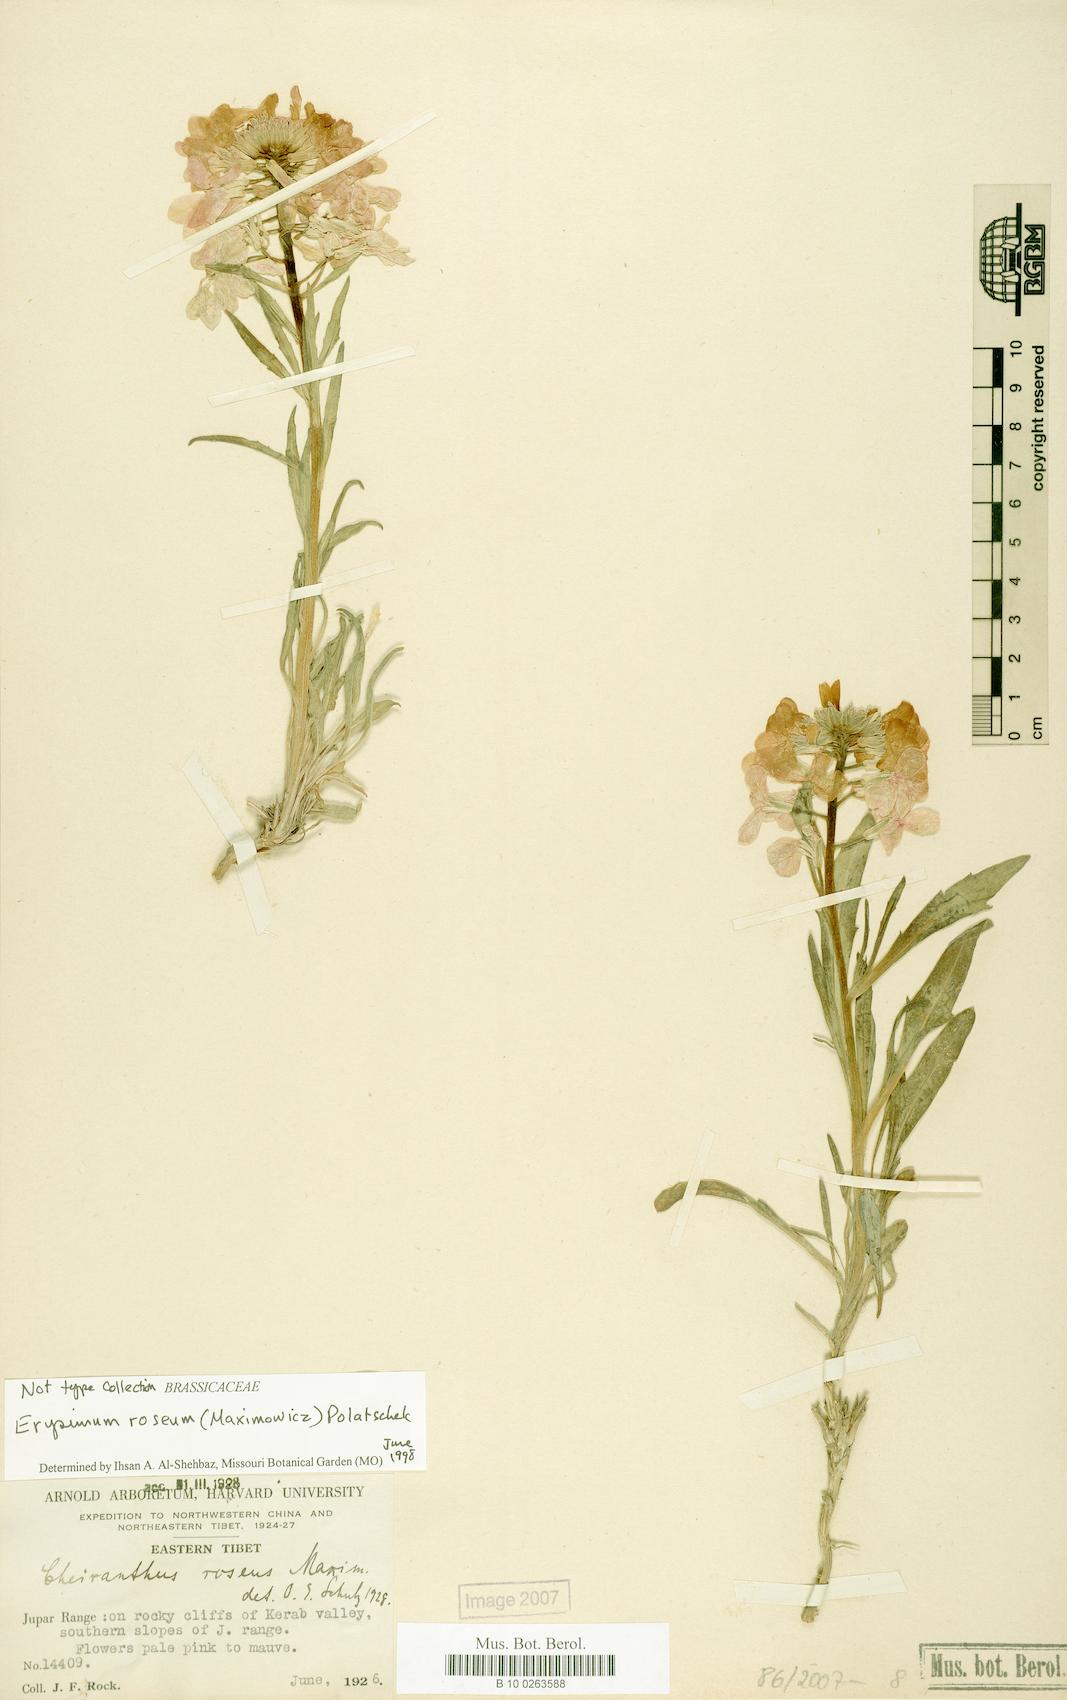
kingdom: Plantae
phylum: Tracheophyta
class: Magnoliopsida
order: Brassicales
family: Brassicaceae
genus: Erysimum
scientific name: Erysimum roseum
